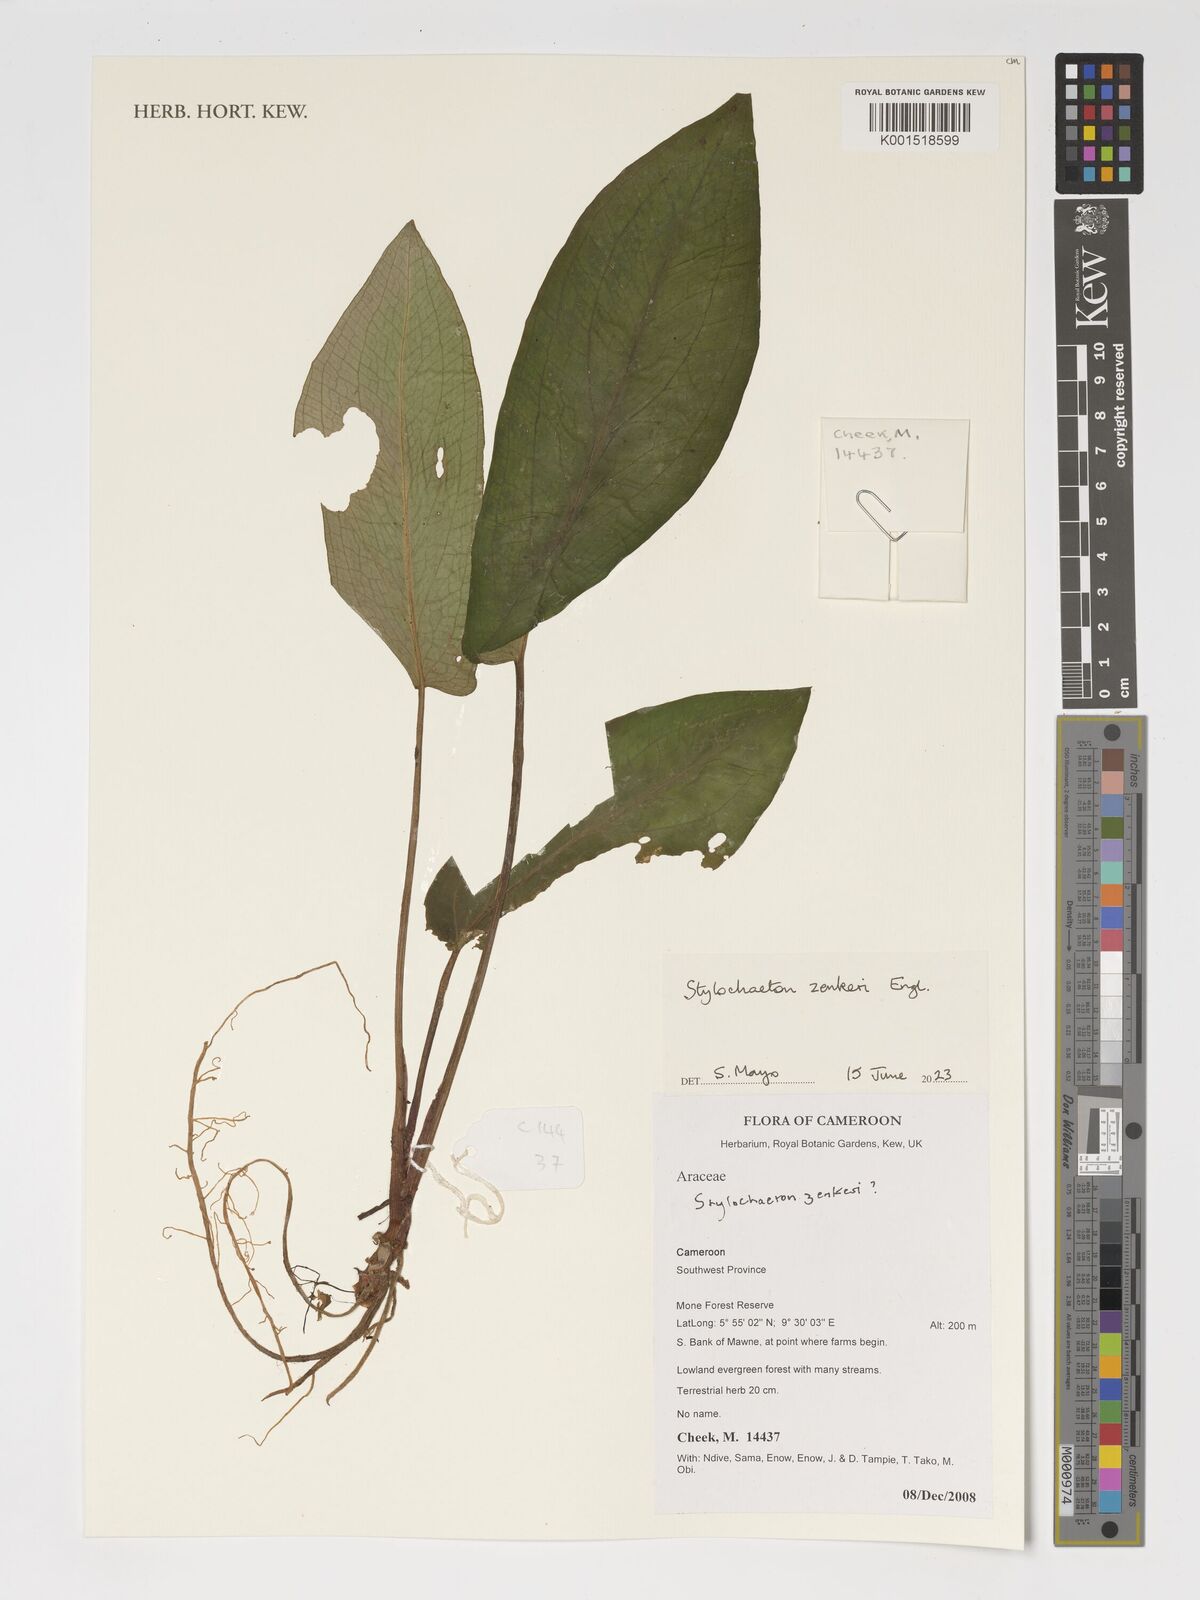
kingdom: Plantae
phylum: Tracheophyta
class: Liliopsida
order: Alismatales
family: Araceae
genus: Stylochaeton
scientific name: Stylochaeton zenkeri
